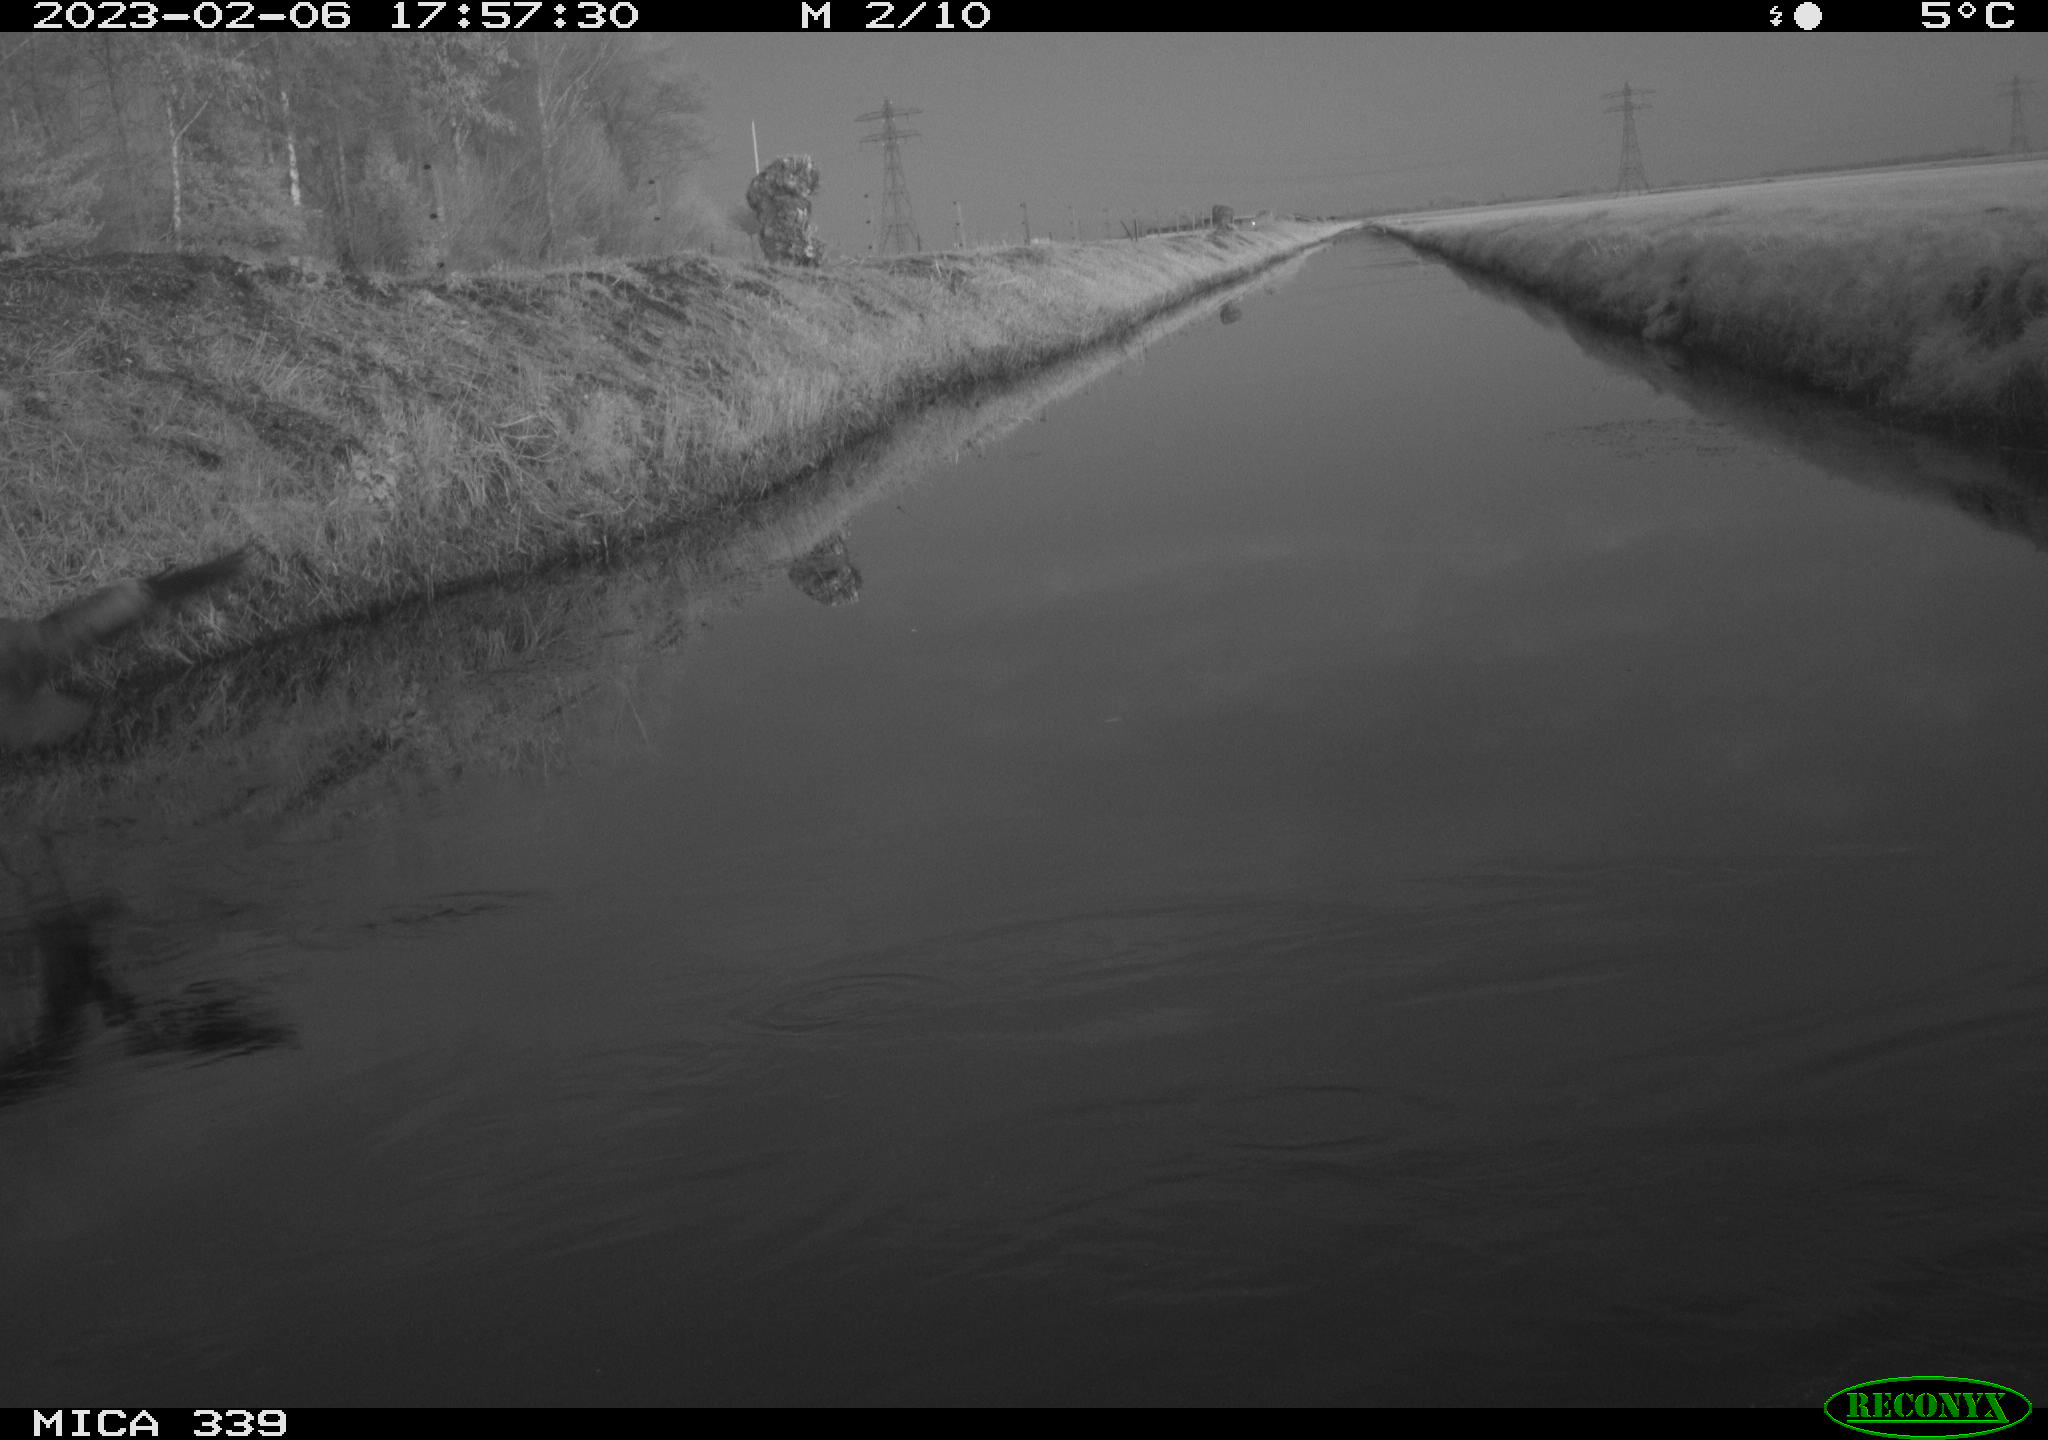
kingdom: Animalia
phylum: Chordata
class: Aves
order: Pelecaniformes
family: Ardeidae
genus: Ardea
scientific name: Ardea cinerea
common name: Grey heron
